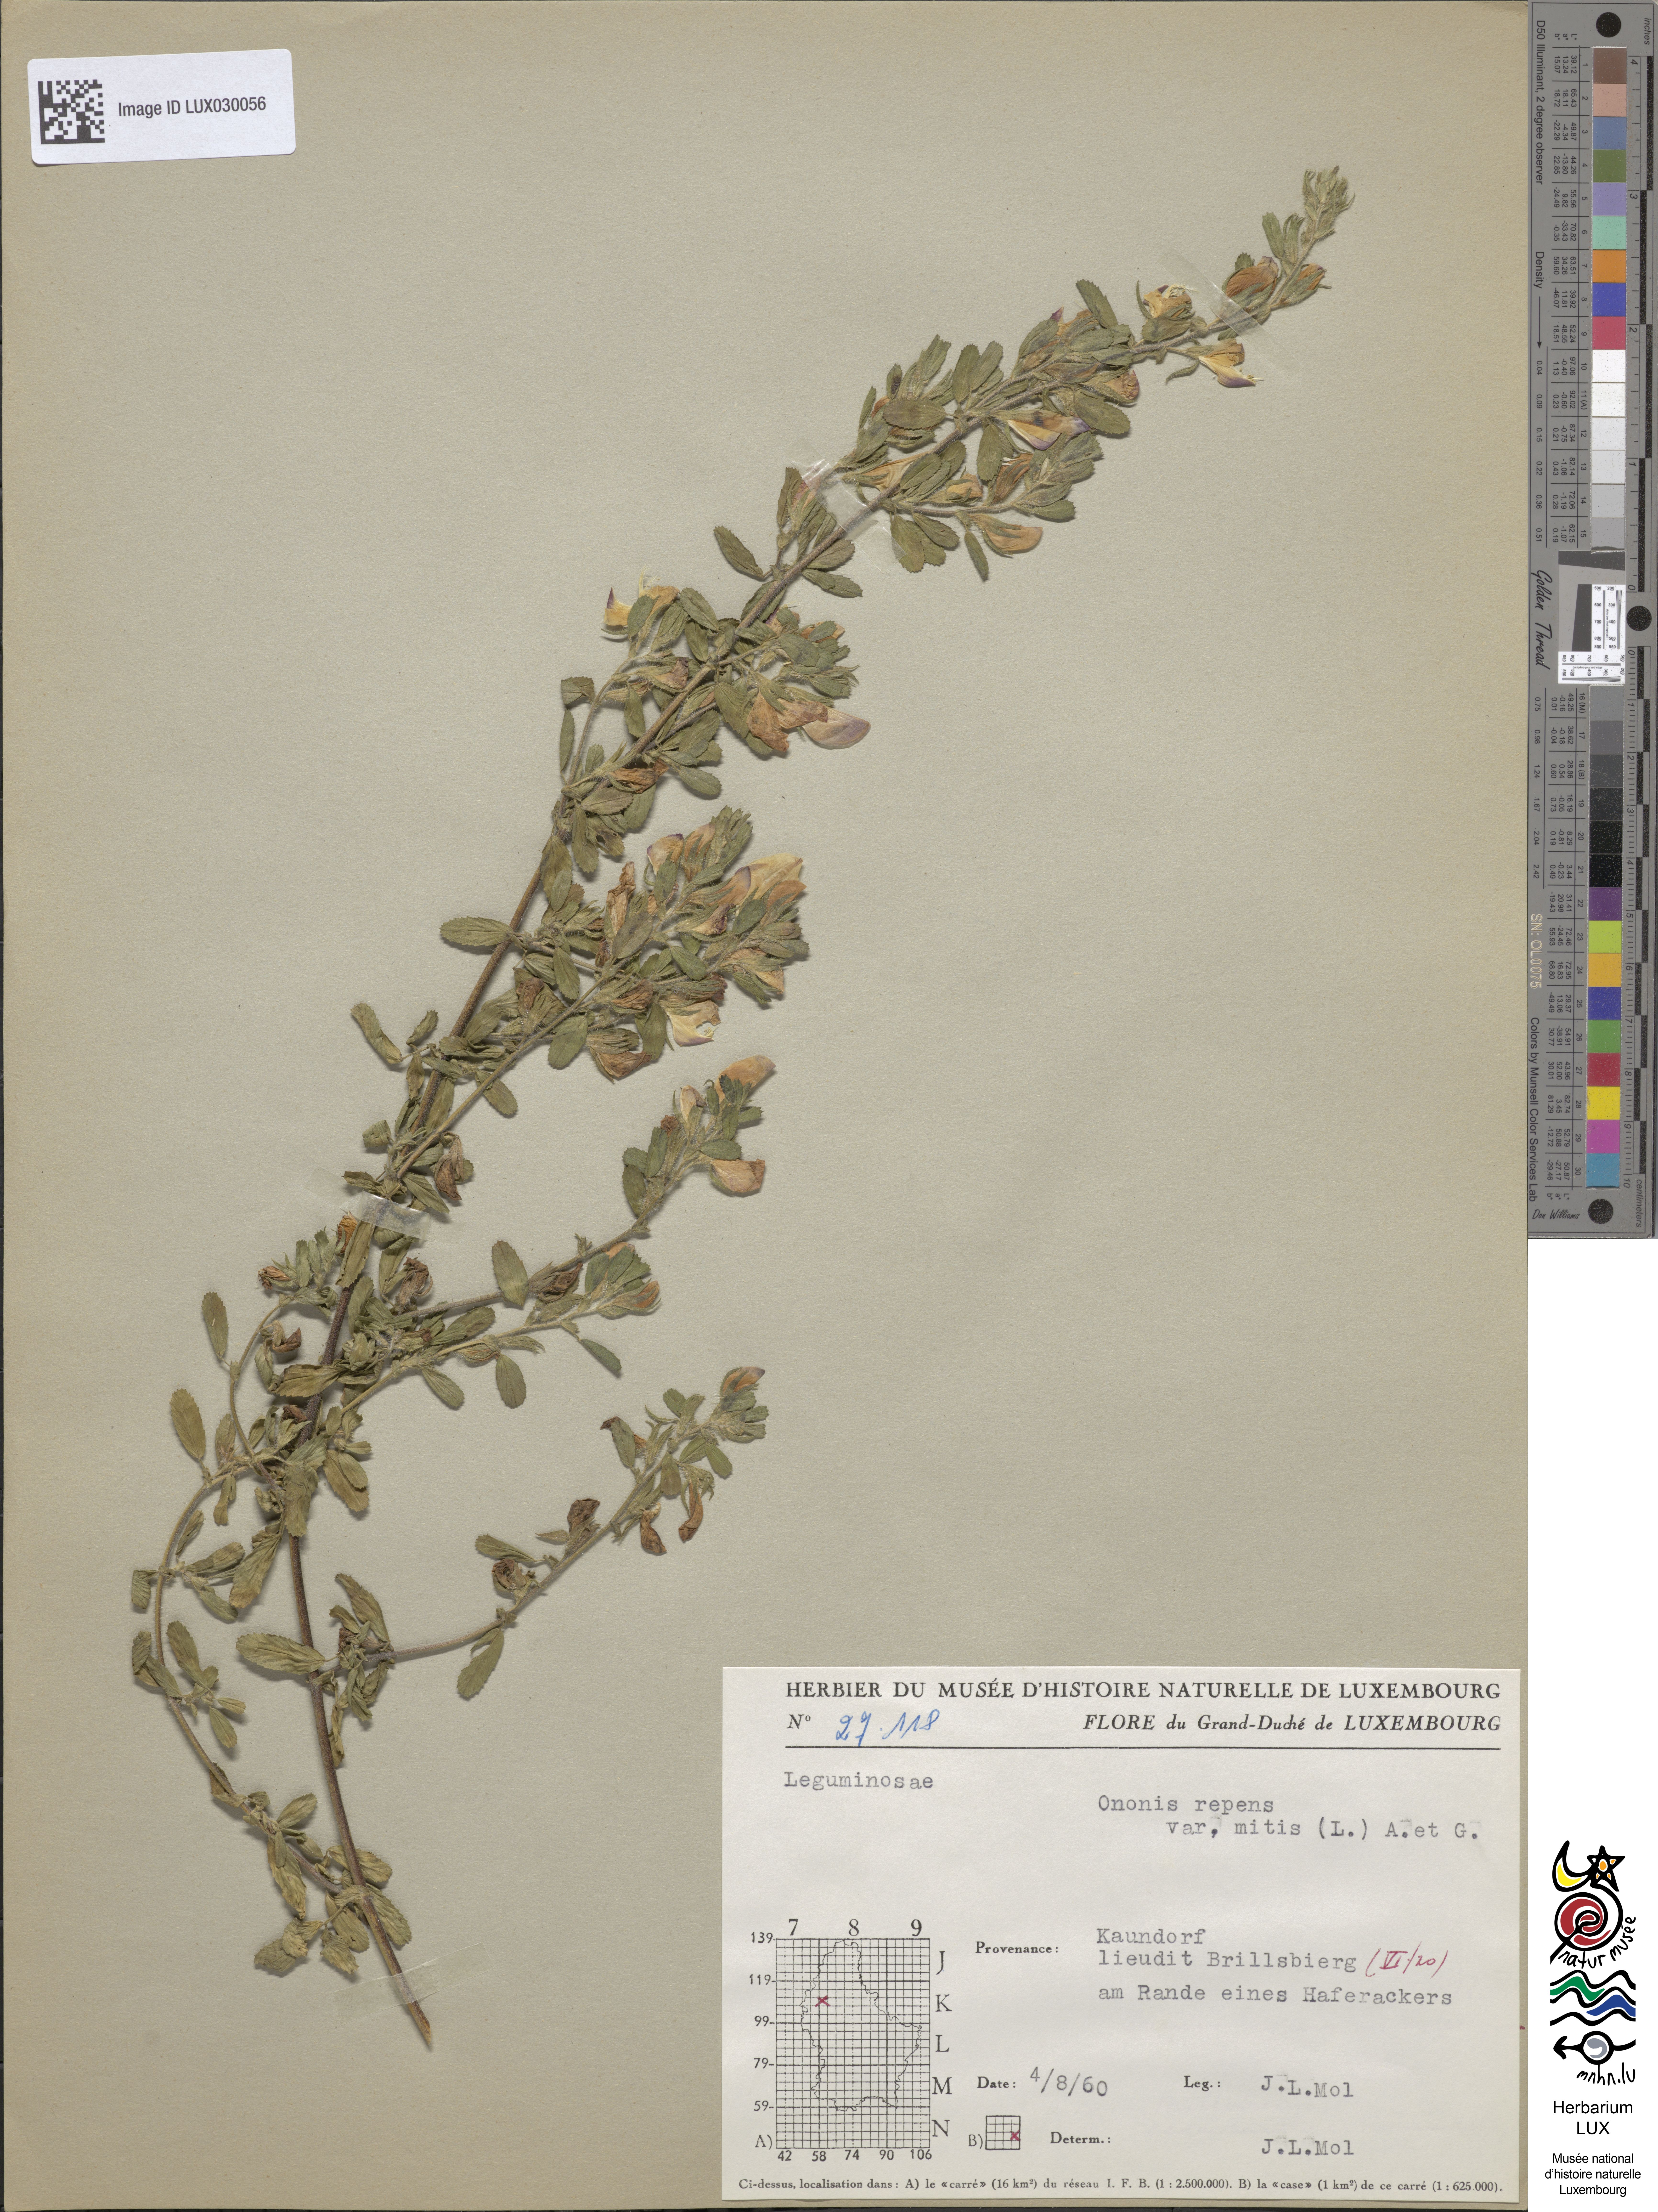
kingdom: Plantae
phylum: Tracheophyta
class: Magnoliopsida
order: Fabales
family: Fabaceae
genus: Ononis
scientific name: Ononis spinosa
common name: Spiny restharrow
